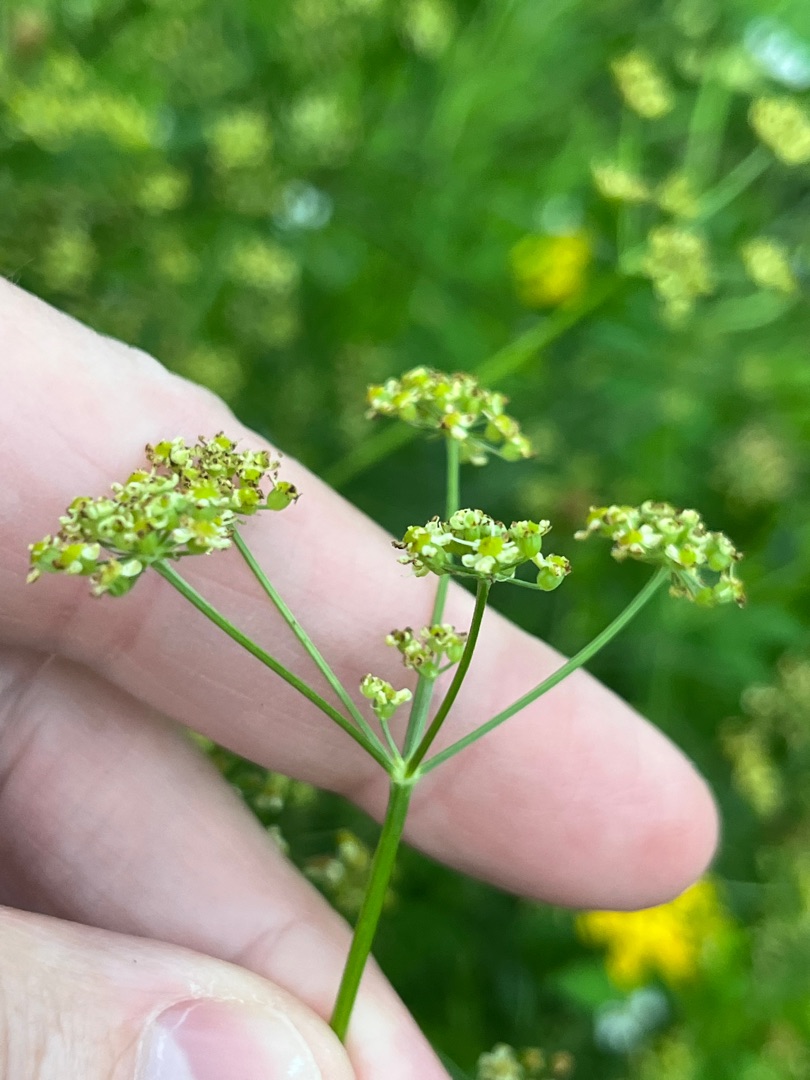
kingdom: Plantae
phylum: Tracheophyta
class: Magnoliopsida
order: Apiales
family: Apiaceae
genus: Silaum
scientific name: Silaum silaus
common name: Peberskærm
